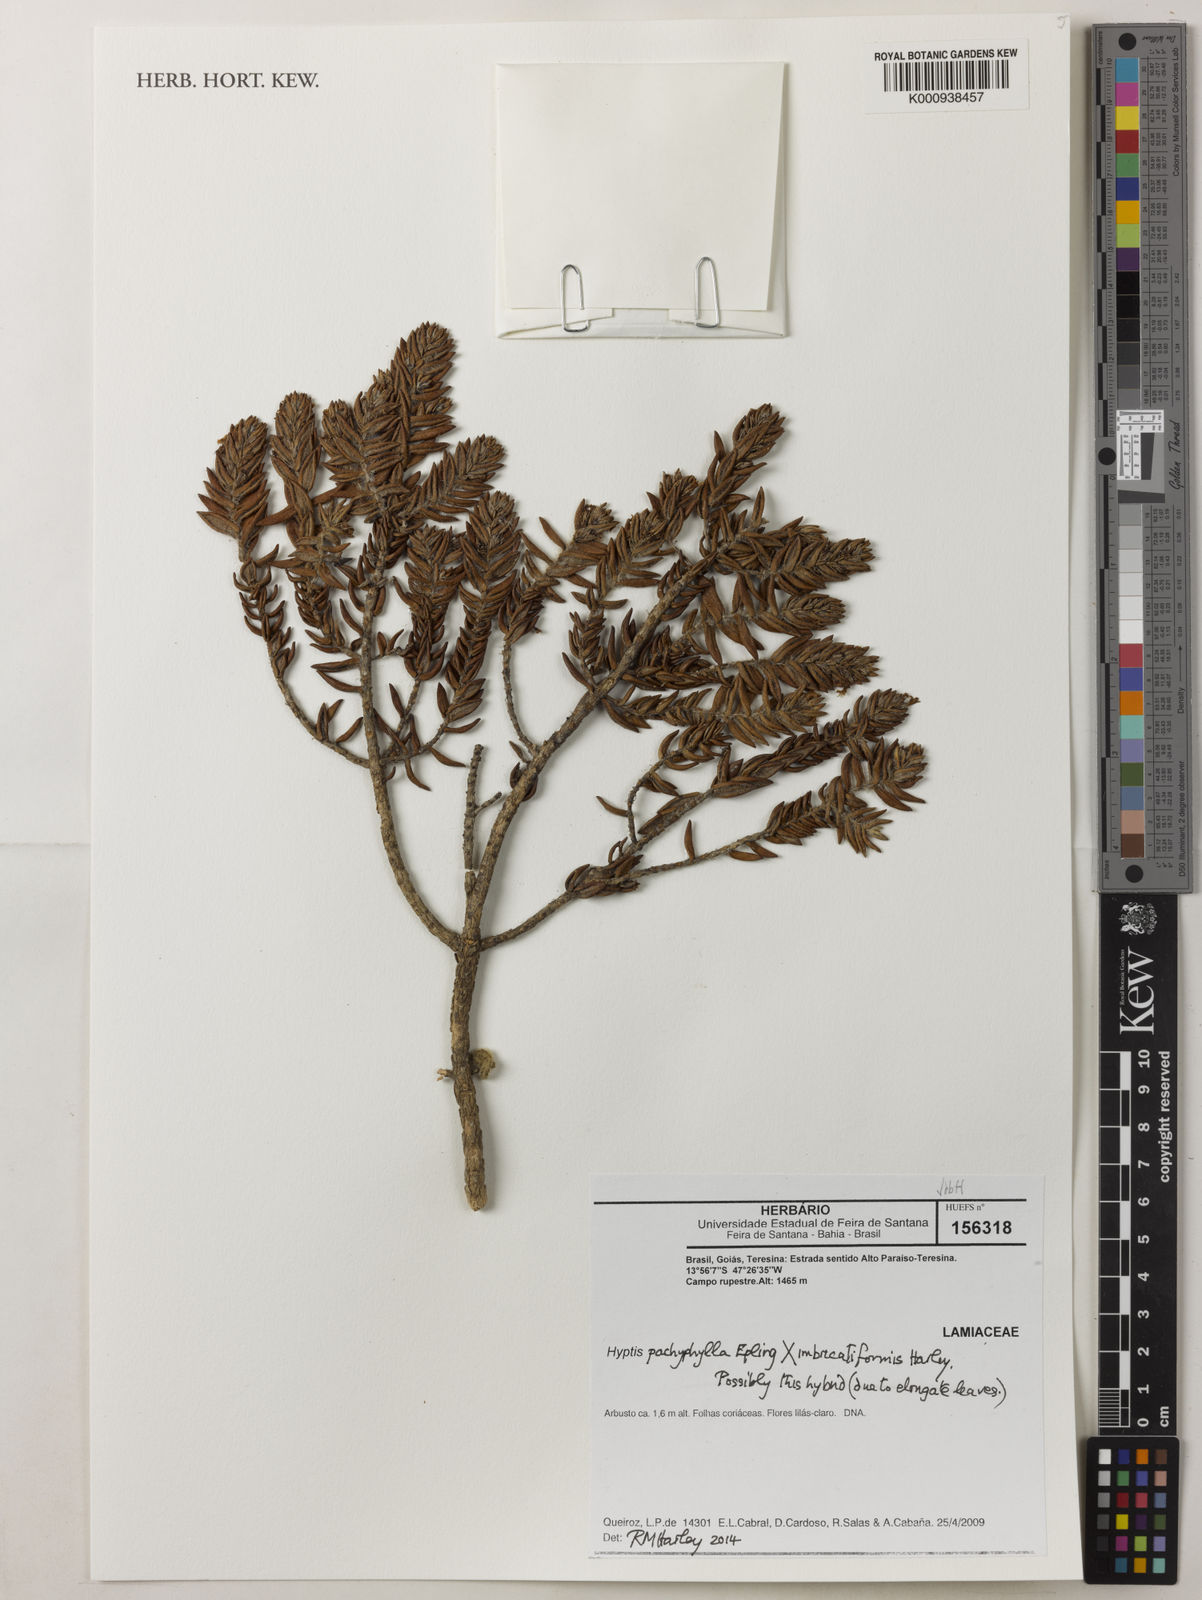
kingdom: Plantae
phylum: Tracheophyta
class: Magnoliopsida
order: Lamiales
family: Lamiaceae
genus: Hyptis
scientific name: Hyptis pachyphylla
